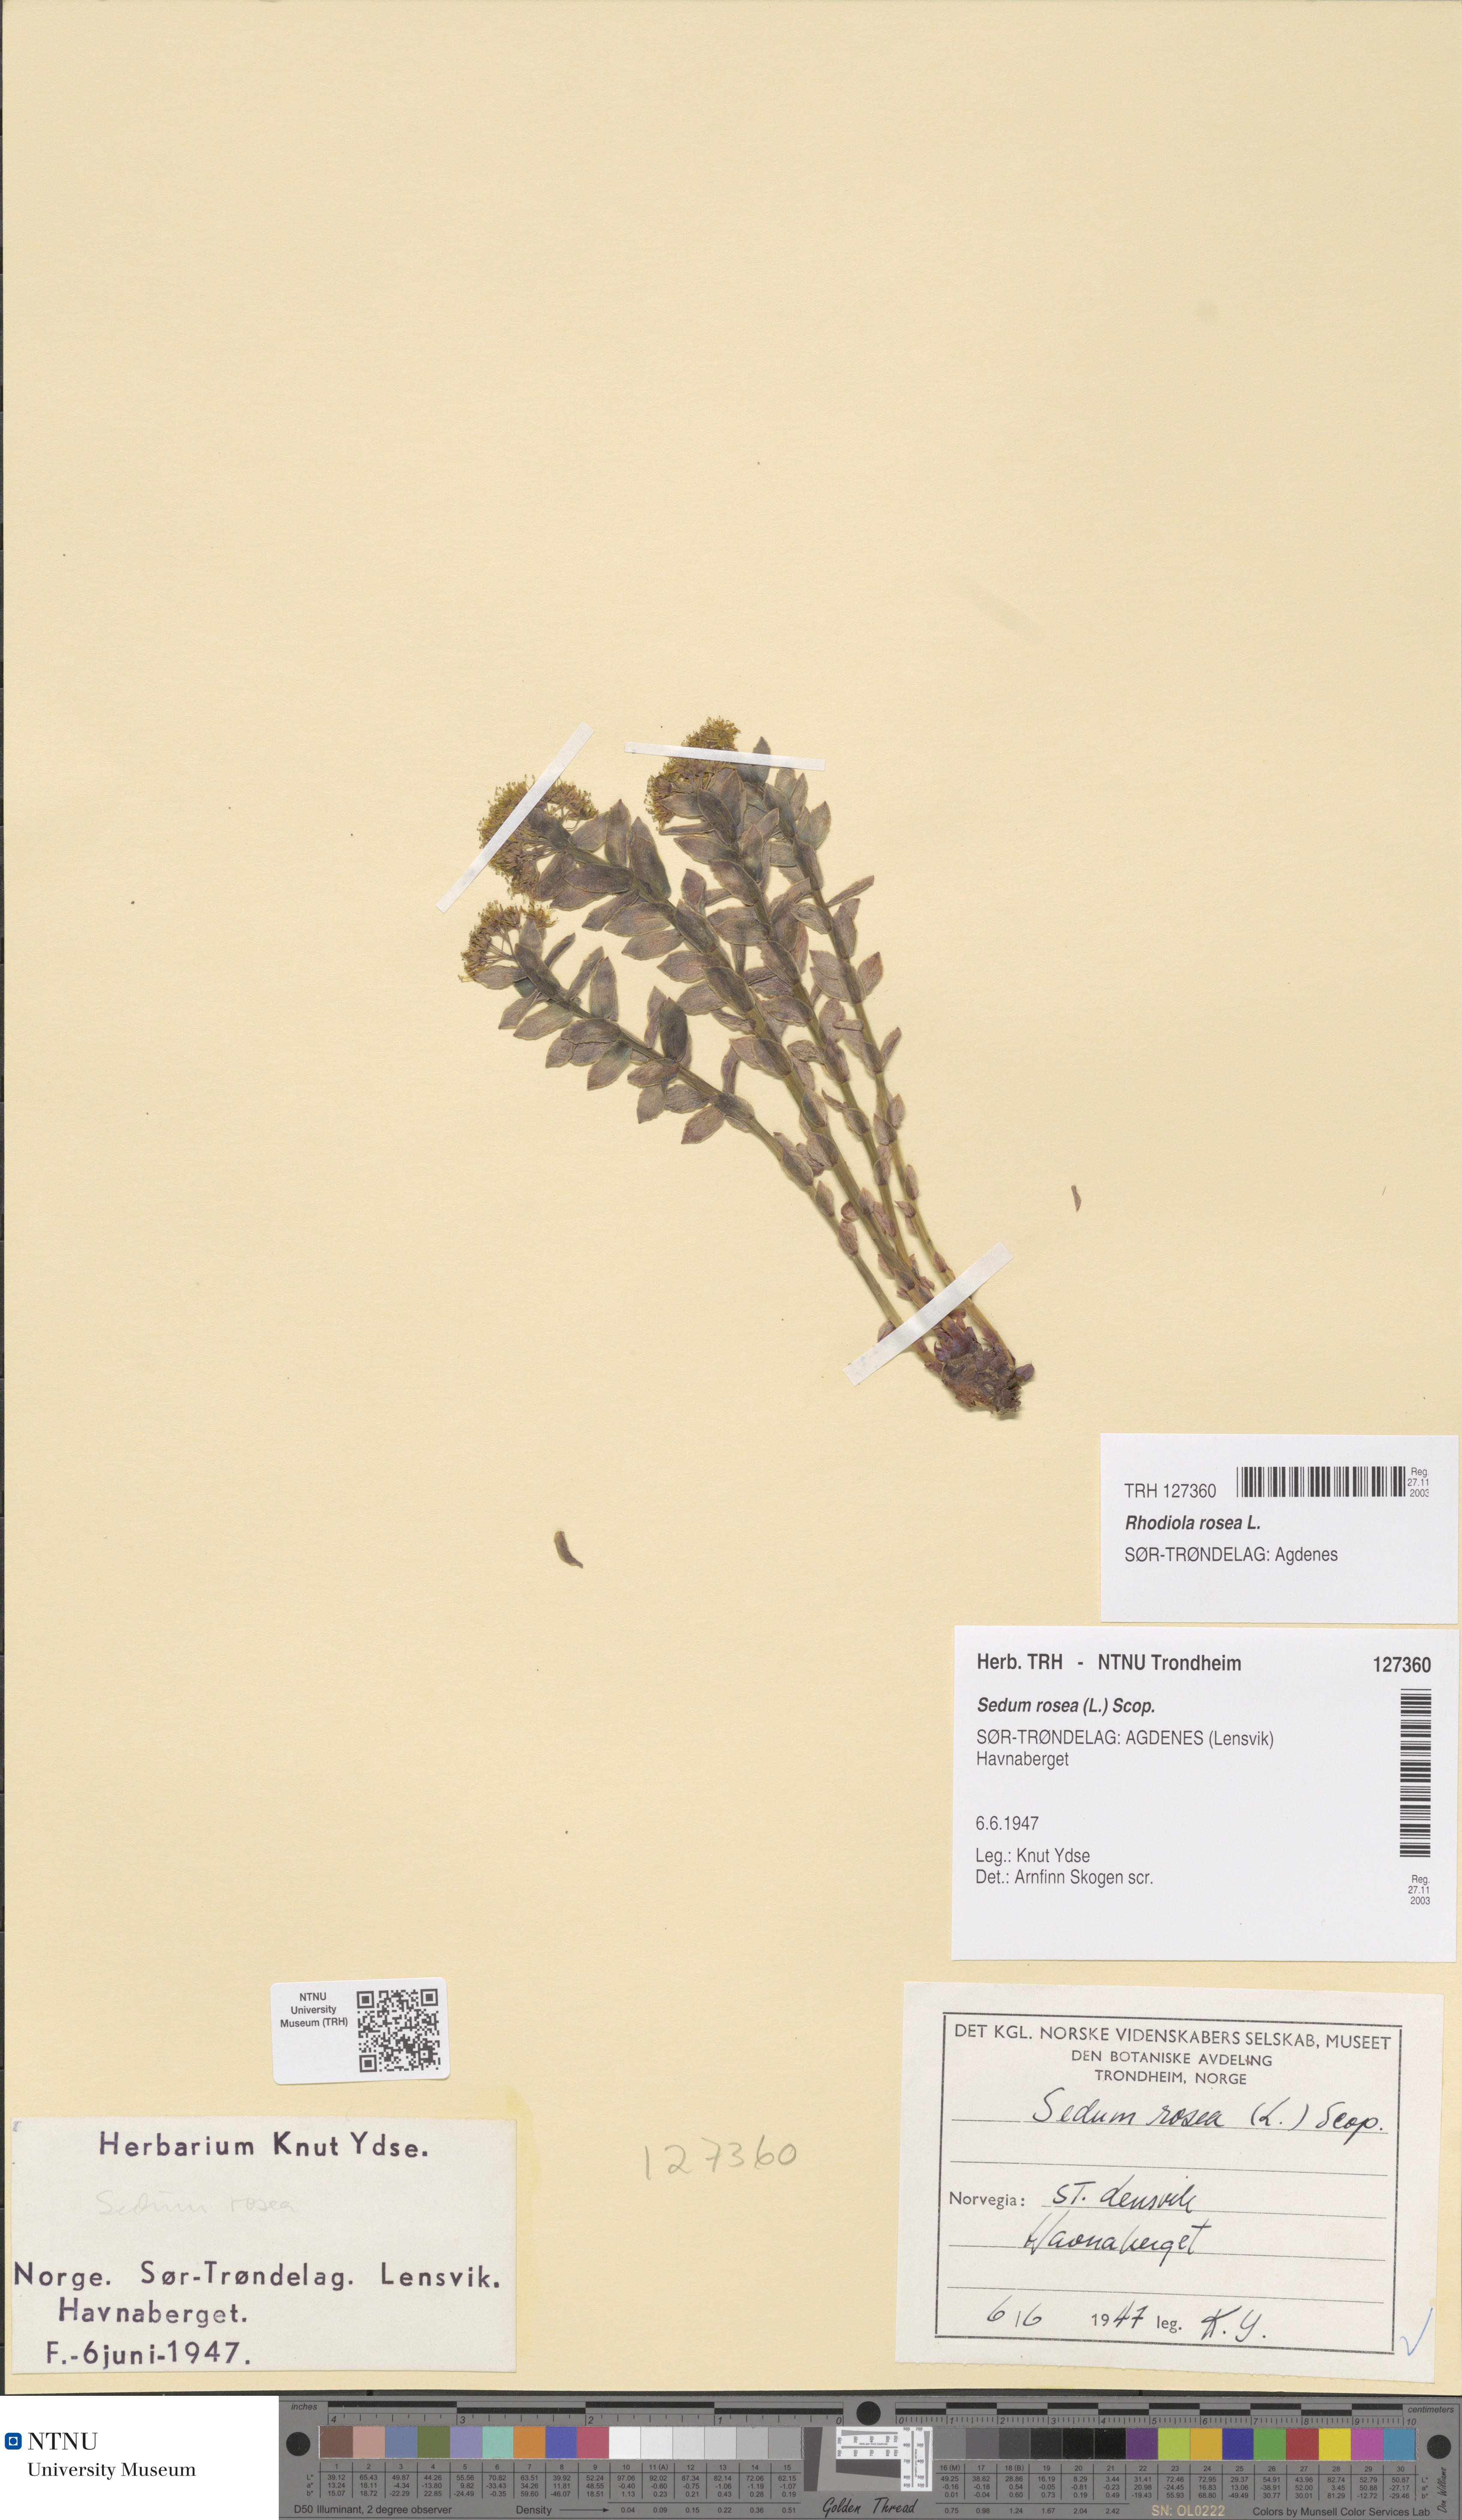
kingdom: Plantae
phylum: Tracheophyta
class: Magnoliopsida
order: Saxifragales
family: Crassulaceae
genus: Rhodiola
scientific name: Rhodiola rosea
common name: Roseroot
